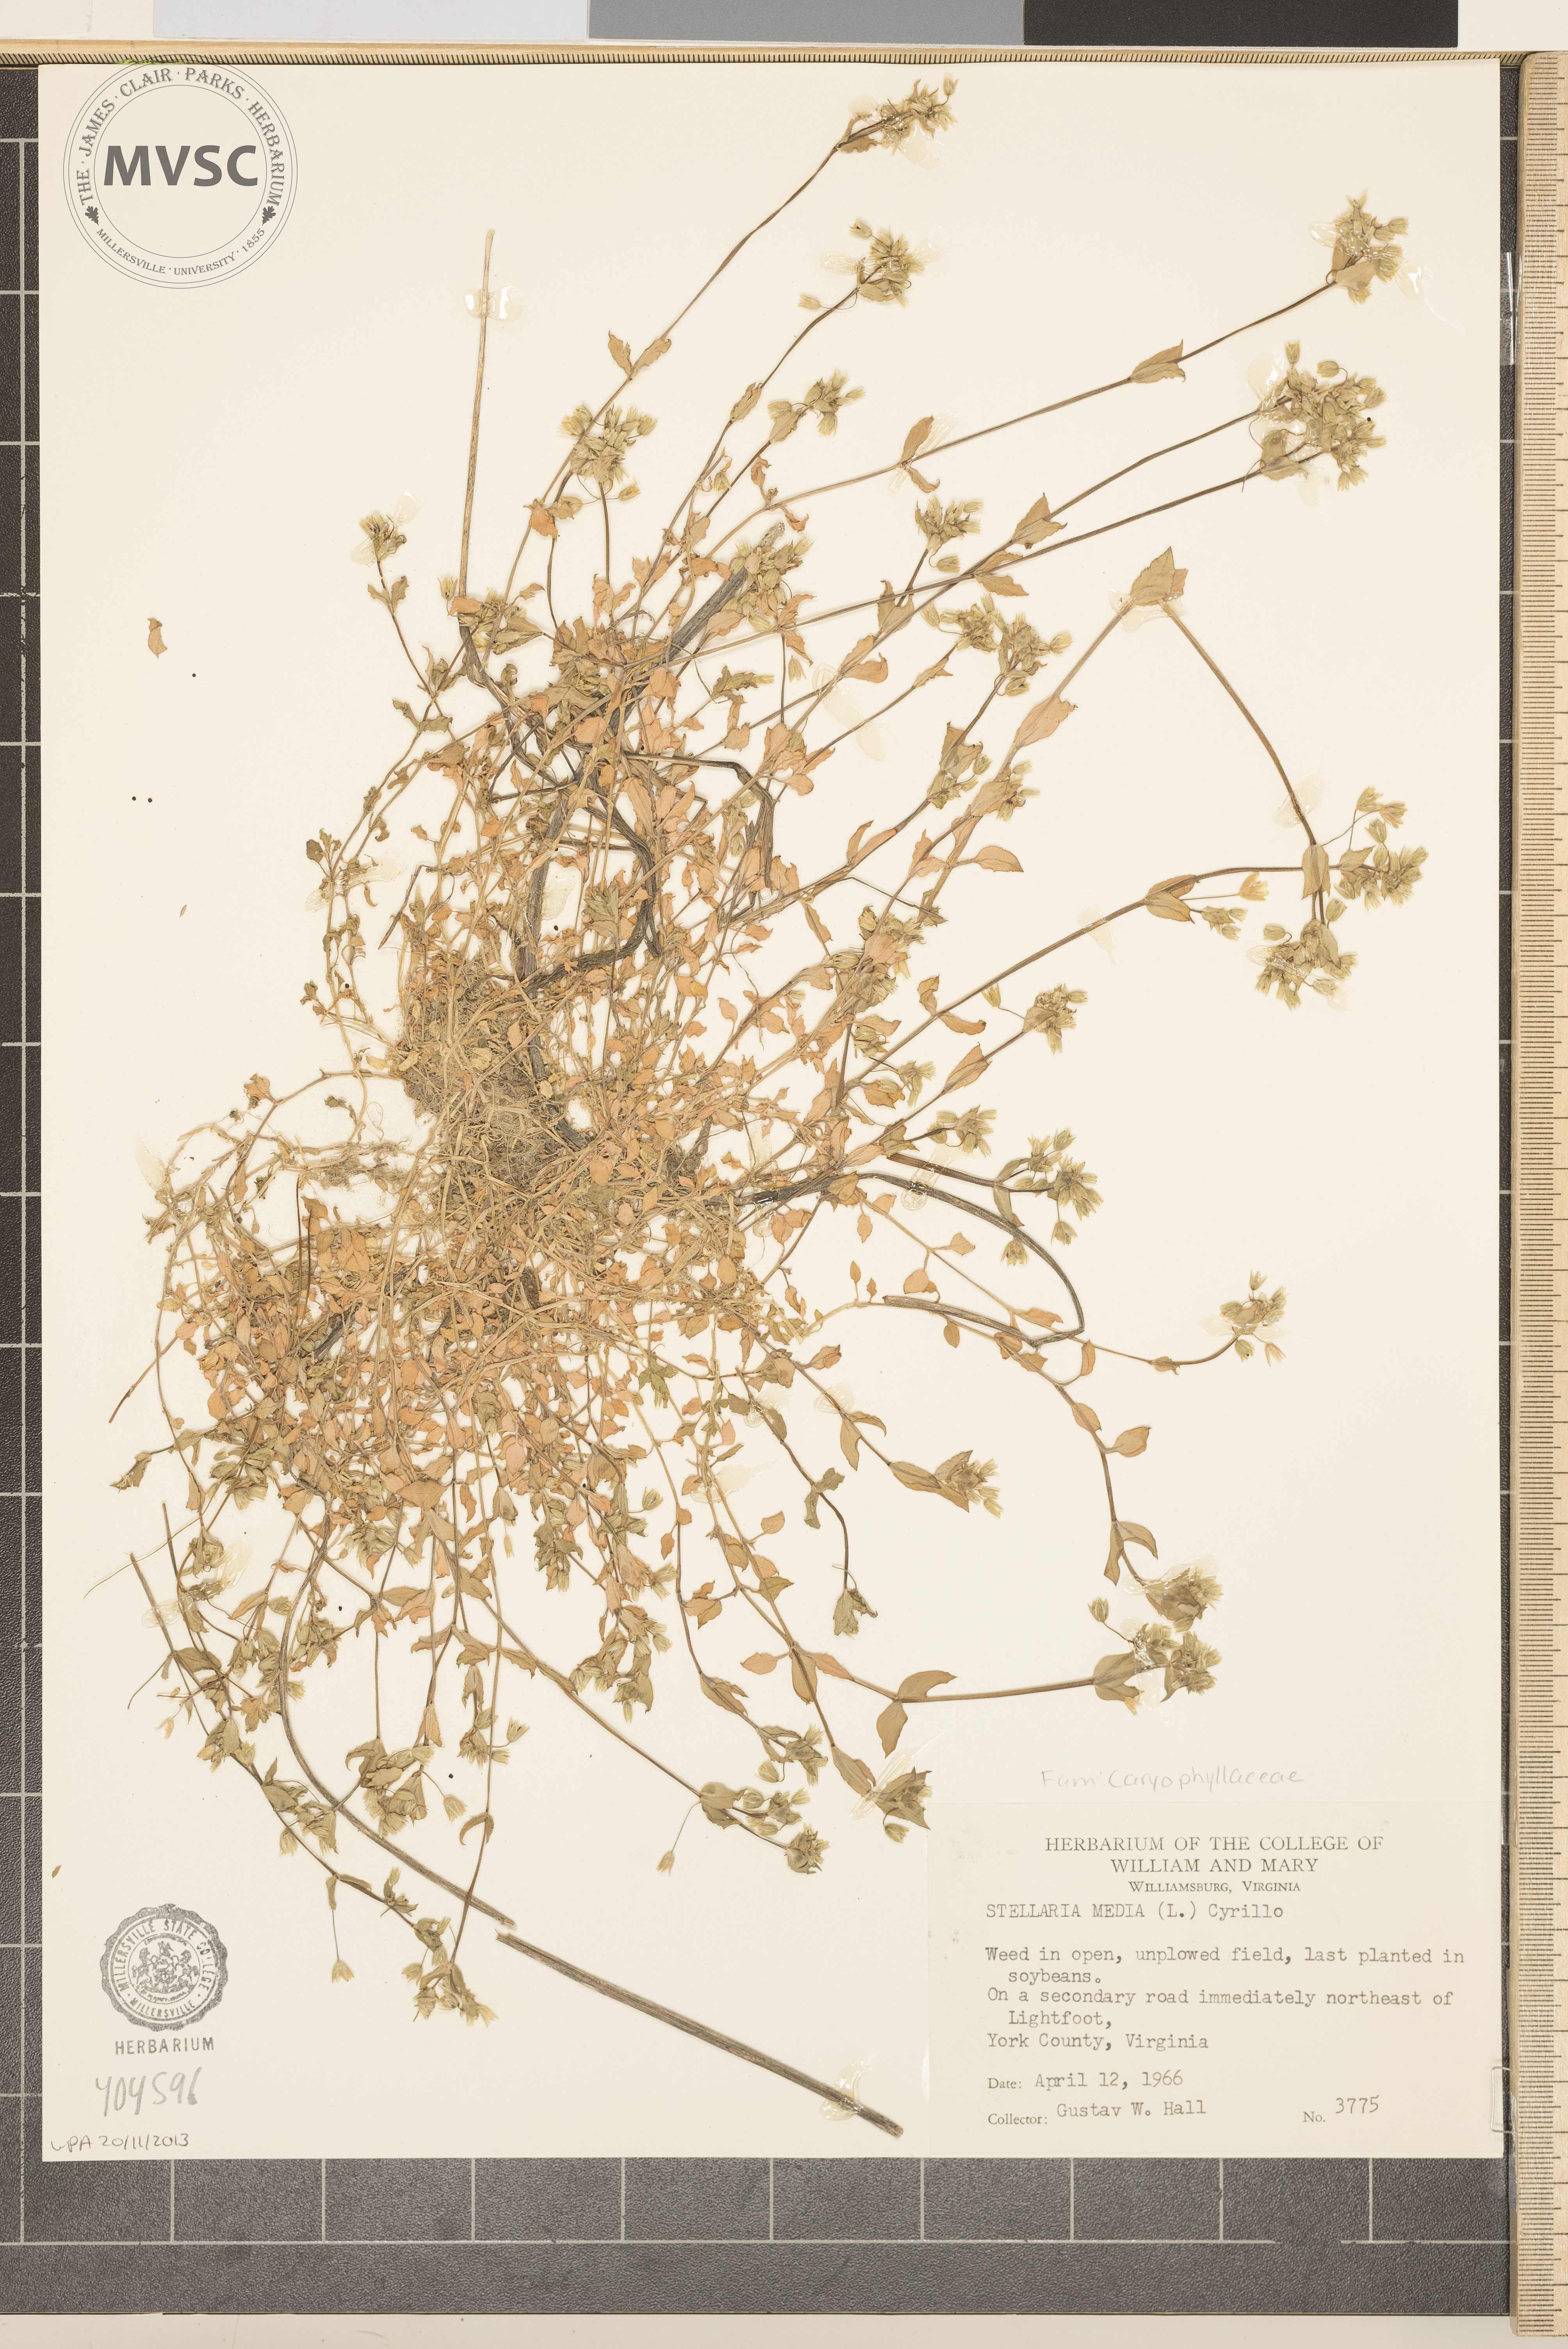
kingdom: Plantae
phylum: Tracheophyta
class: Magnoliopsida
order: Caryophyllales
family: Caryophyllaceae
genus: Stellaria
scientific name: Stellaria media
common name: Common chickweed
